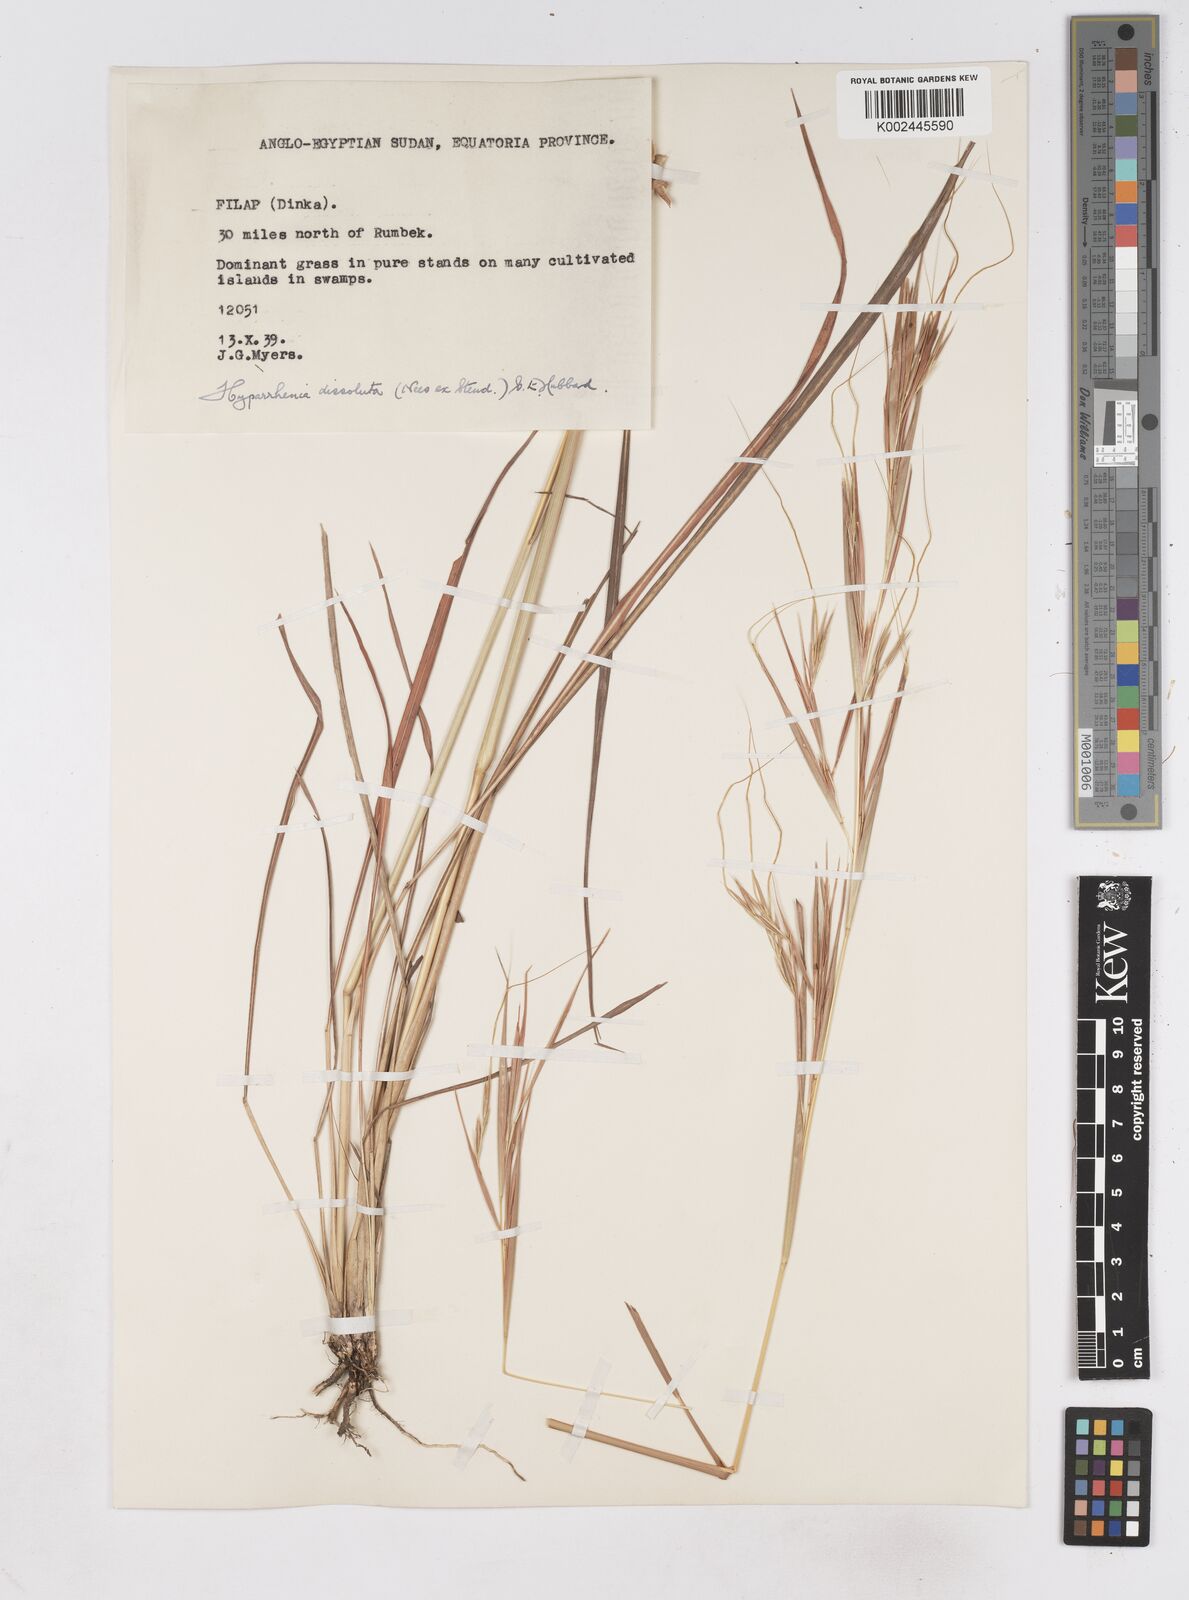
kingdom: Plantae
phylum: Tracheophyta
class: Liliopsida
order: Poales
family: Poaceae
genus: Hyperthelia
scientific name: Hyperthelia dissoluta
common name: Yellow thatching grass
